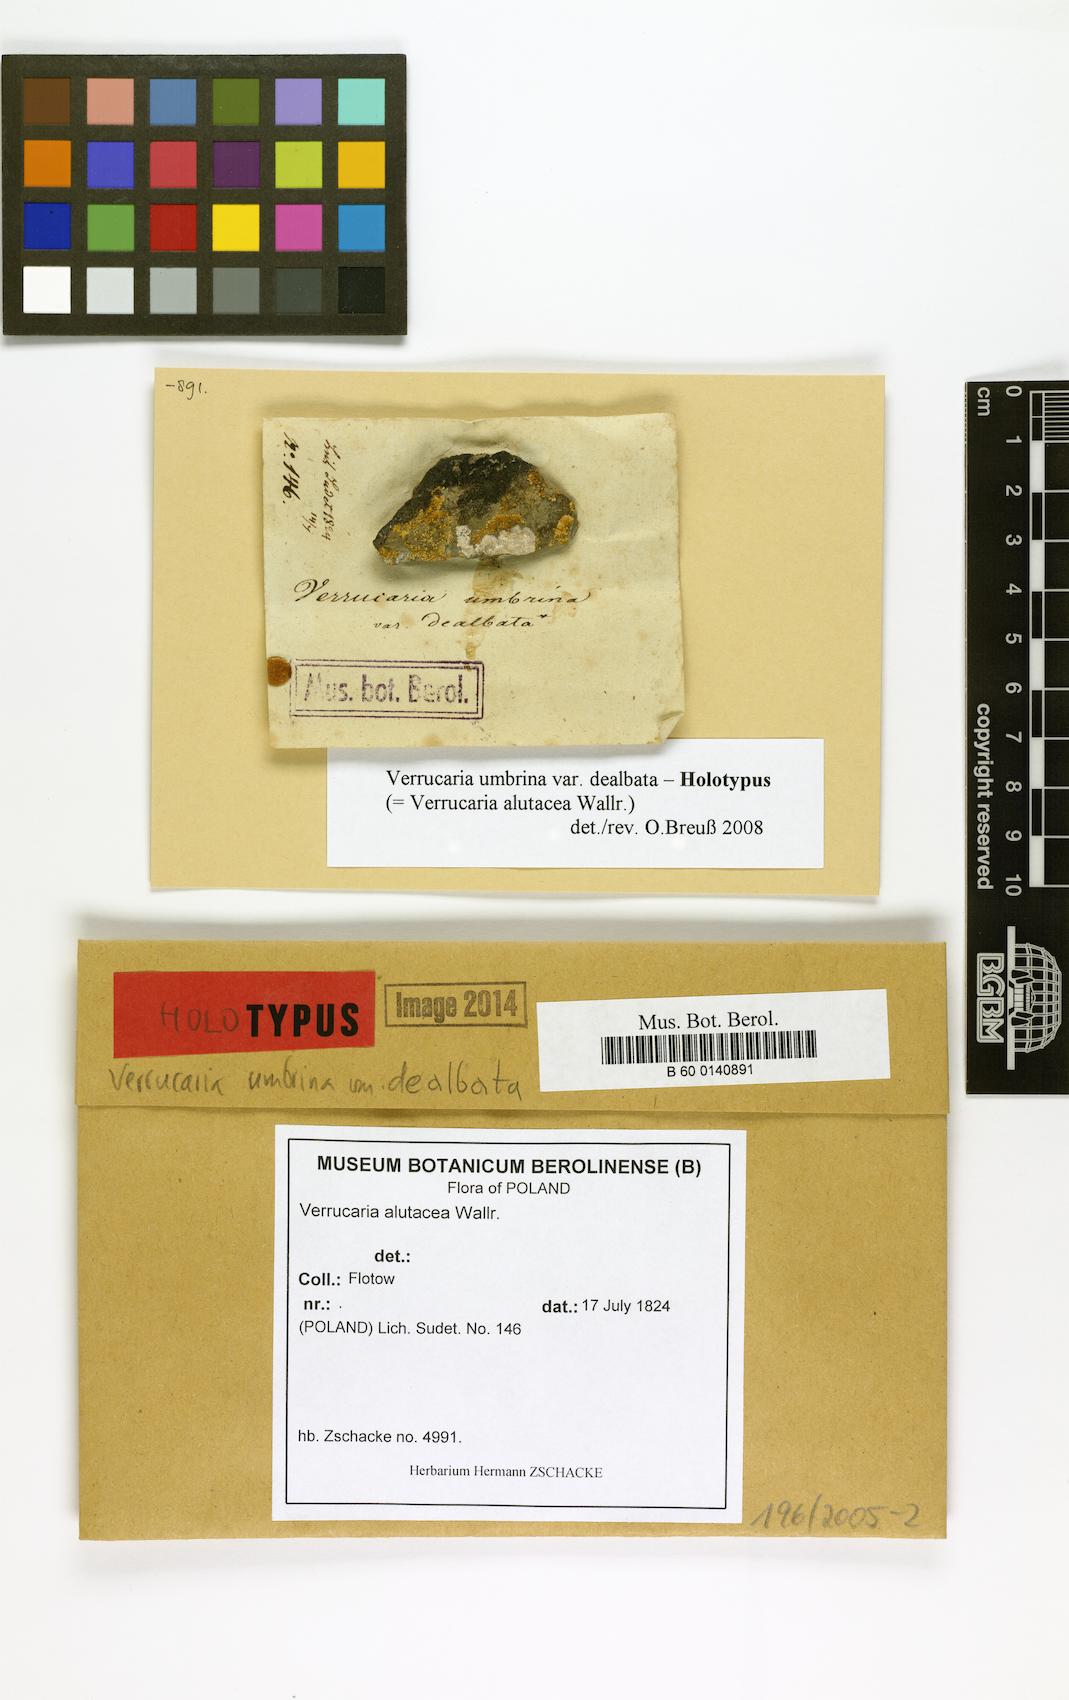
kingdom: Fungi
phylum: Ascomycota
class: Eurotiomycetes
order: Verrucariales
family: Verrucariaceae
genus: Verrucaria
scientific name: Verrucaria umbrina
